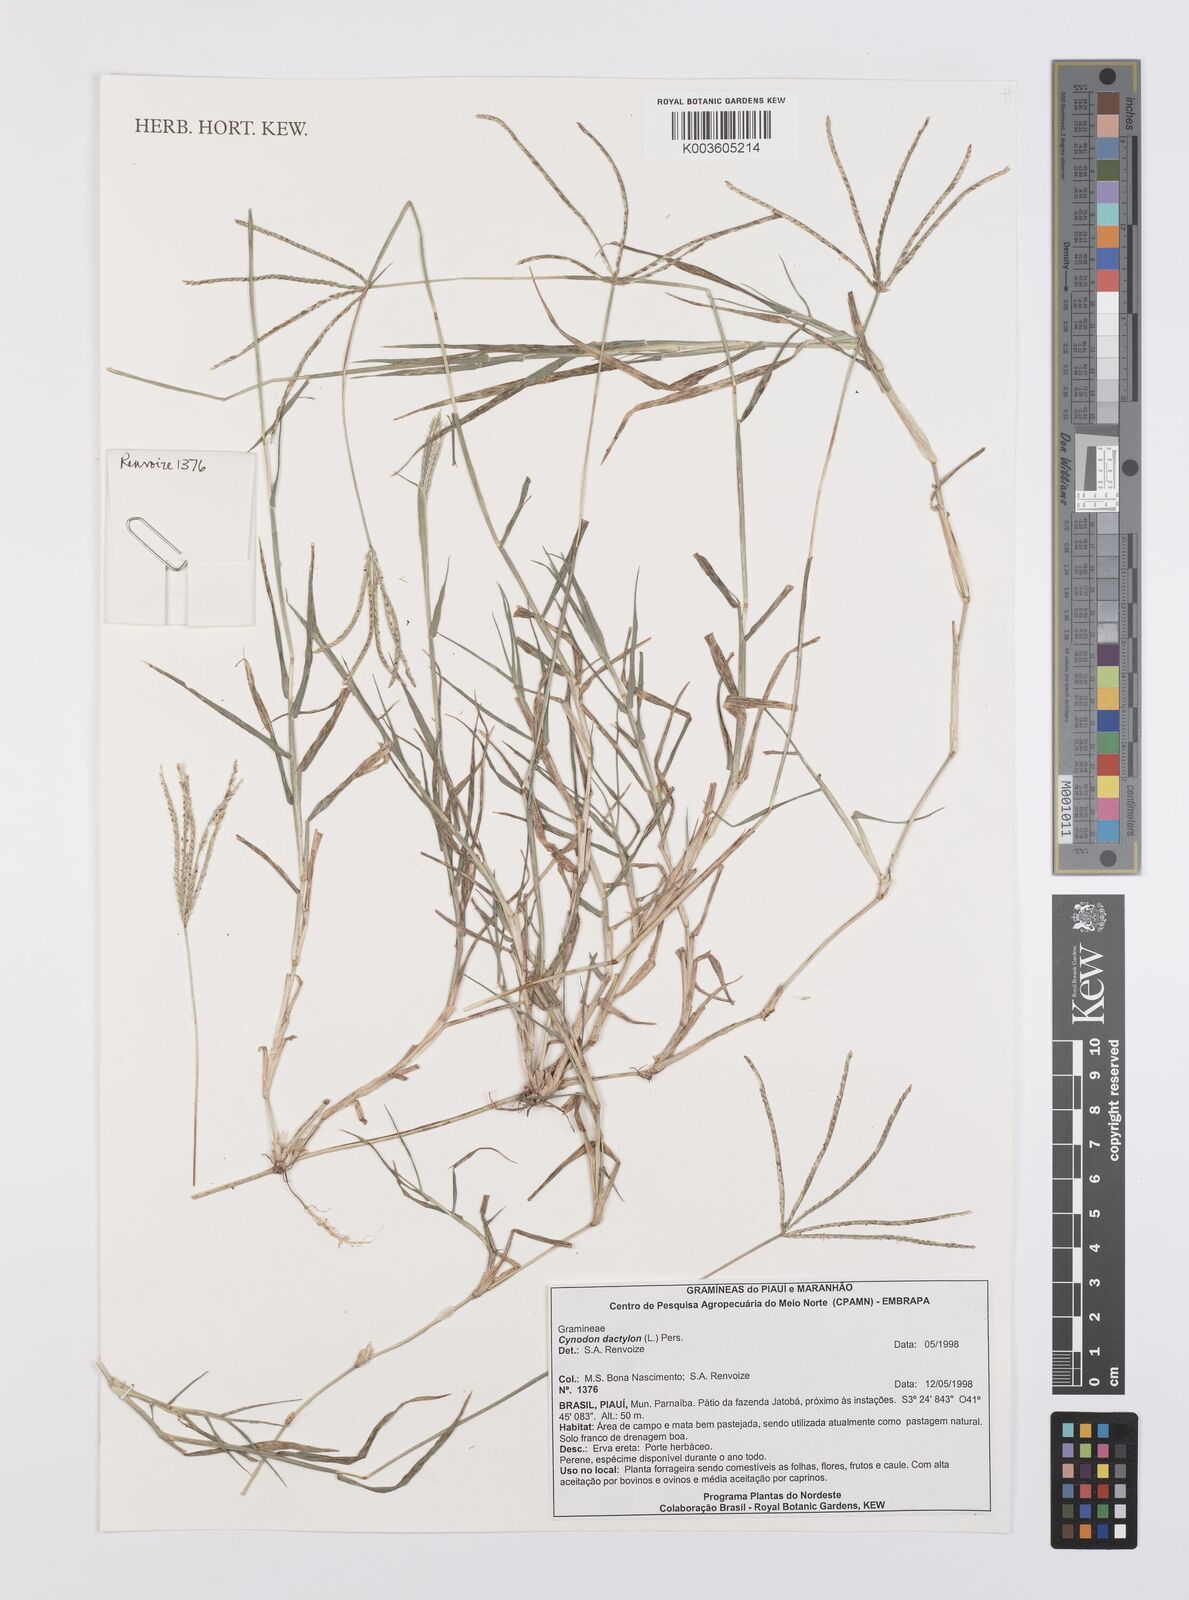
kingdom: Plantae
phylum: Tracheophyta
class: Liliopsida
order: Poales
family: Poaceae
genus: Cynodon
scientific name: Cynodon dactylon
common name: Bermuda grass
